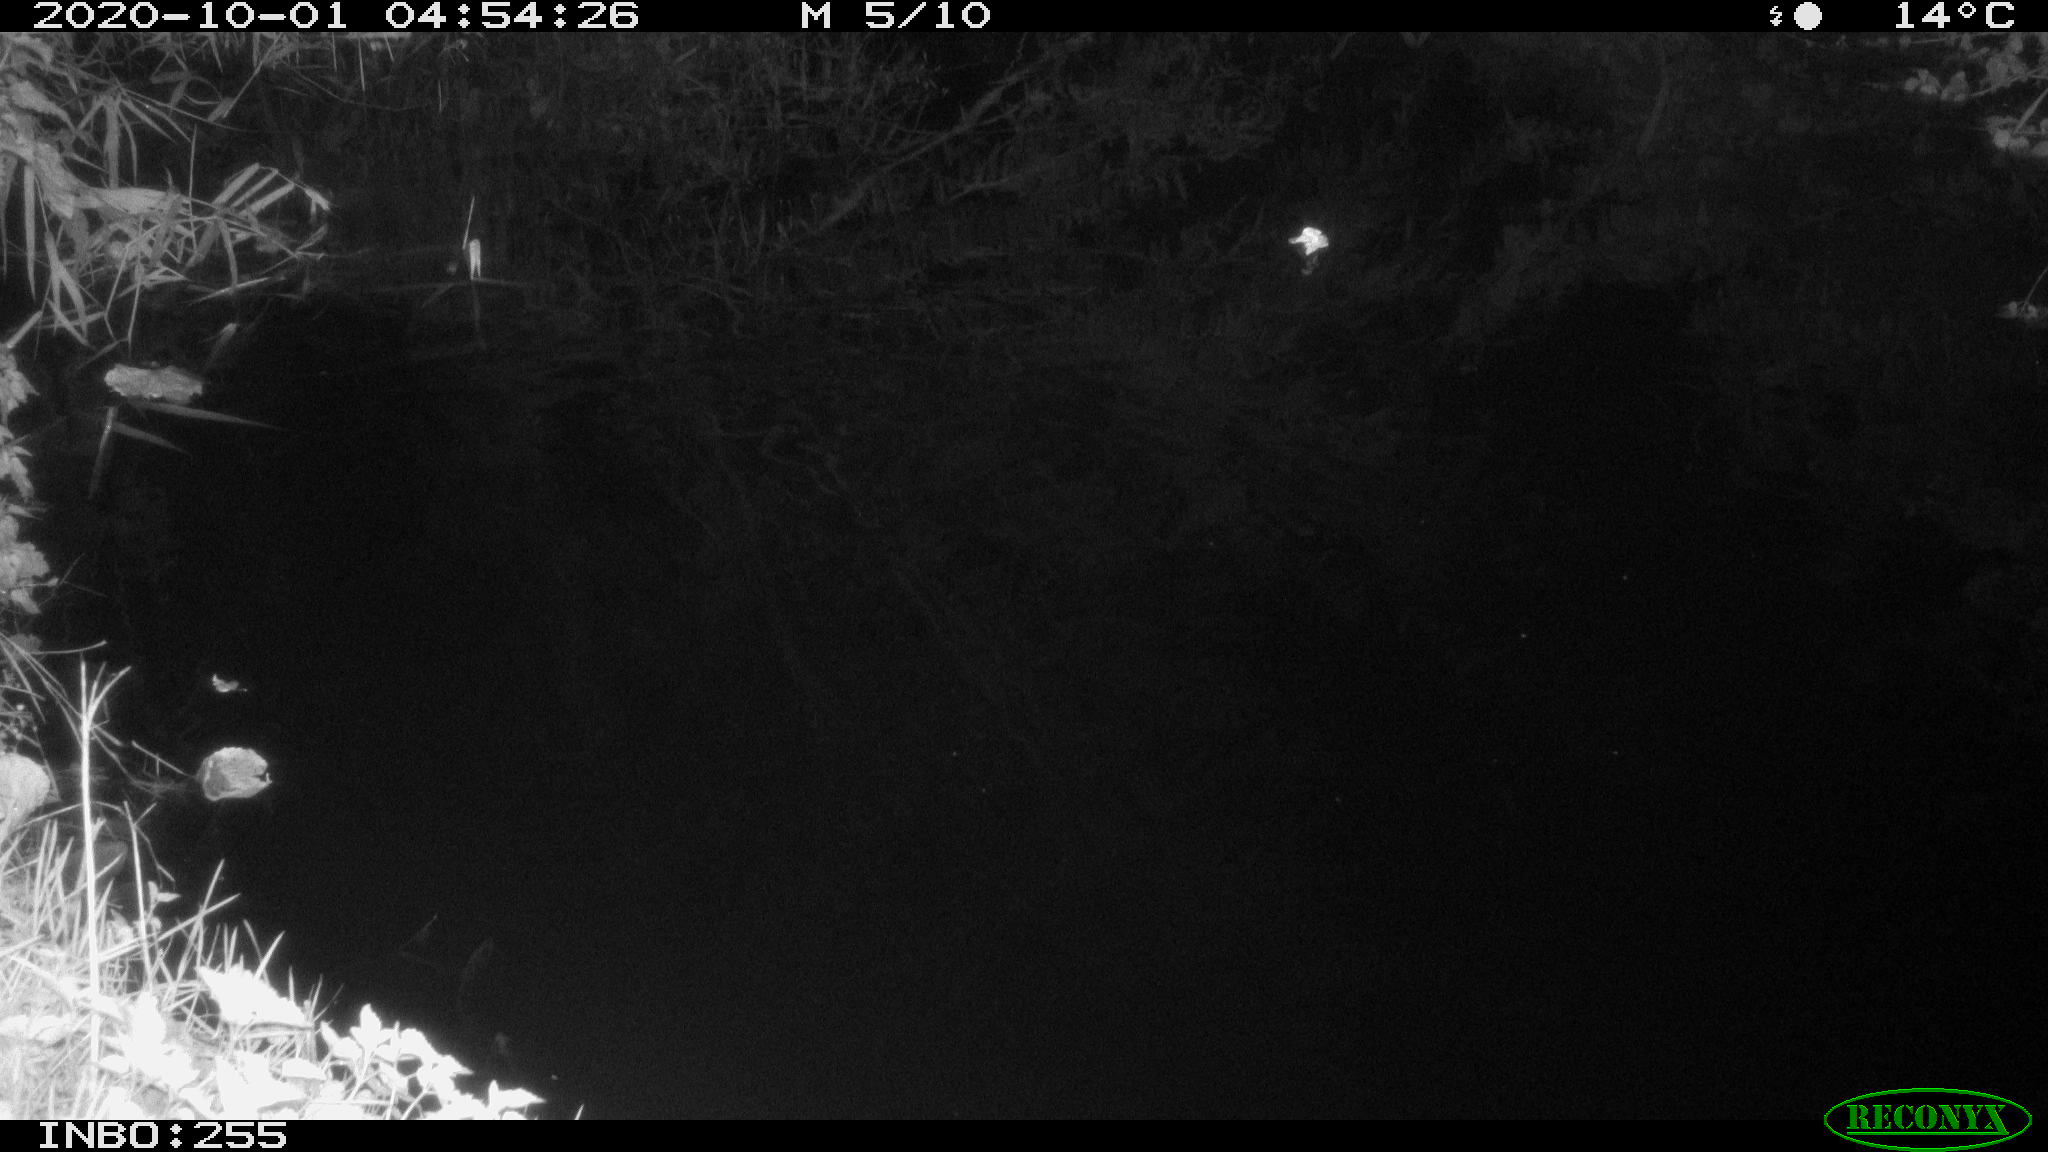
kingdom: Animalia
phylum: Chordata
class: Mammalia
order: Rodentia
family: Cricetidae
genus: Arvicola
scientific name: Arvicola amphibius
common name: European water vole
